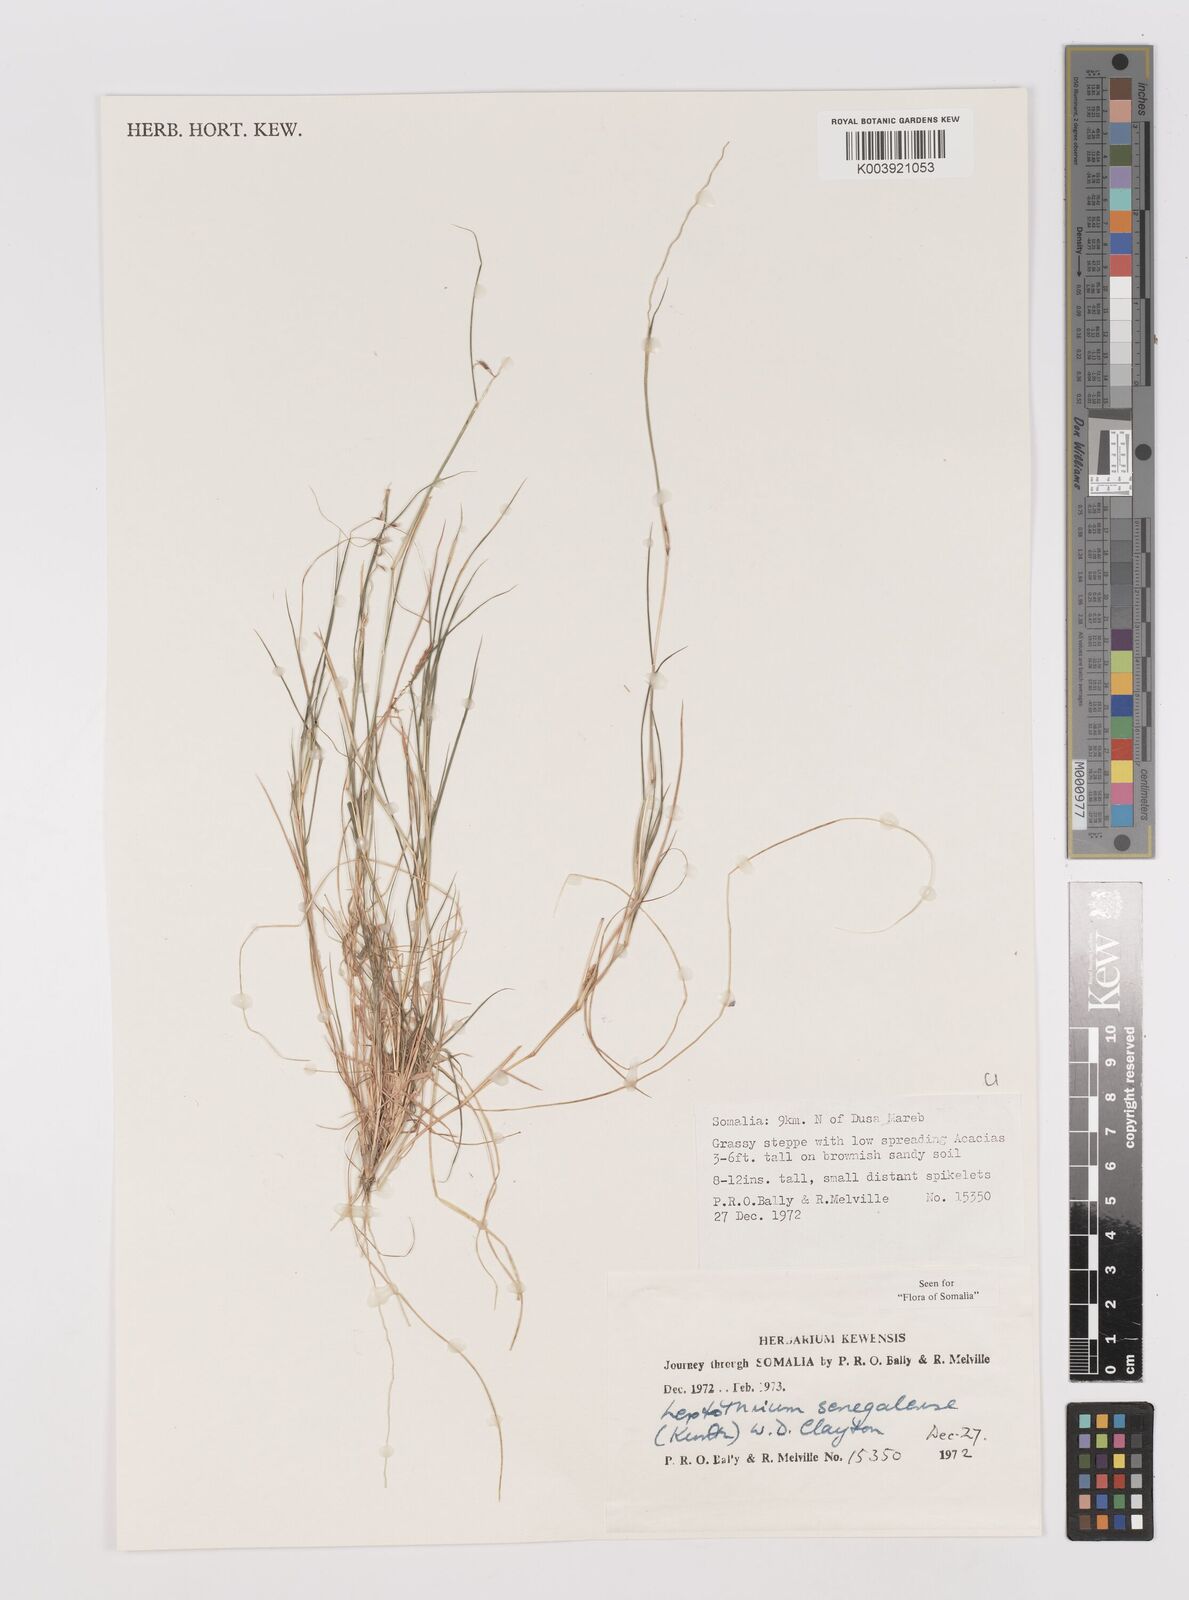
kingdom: Plantae
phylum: Tracheophyta
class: Liliopsida
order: Poales
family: Poaceae
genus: Leptothrium
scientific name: Leptothrium senegalense
